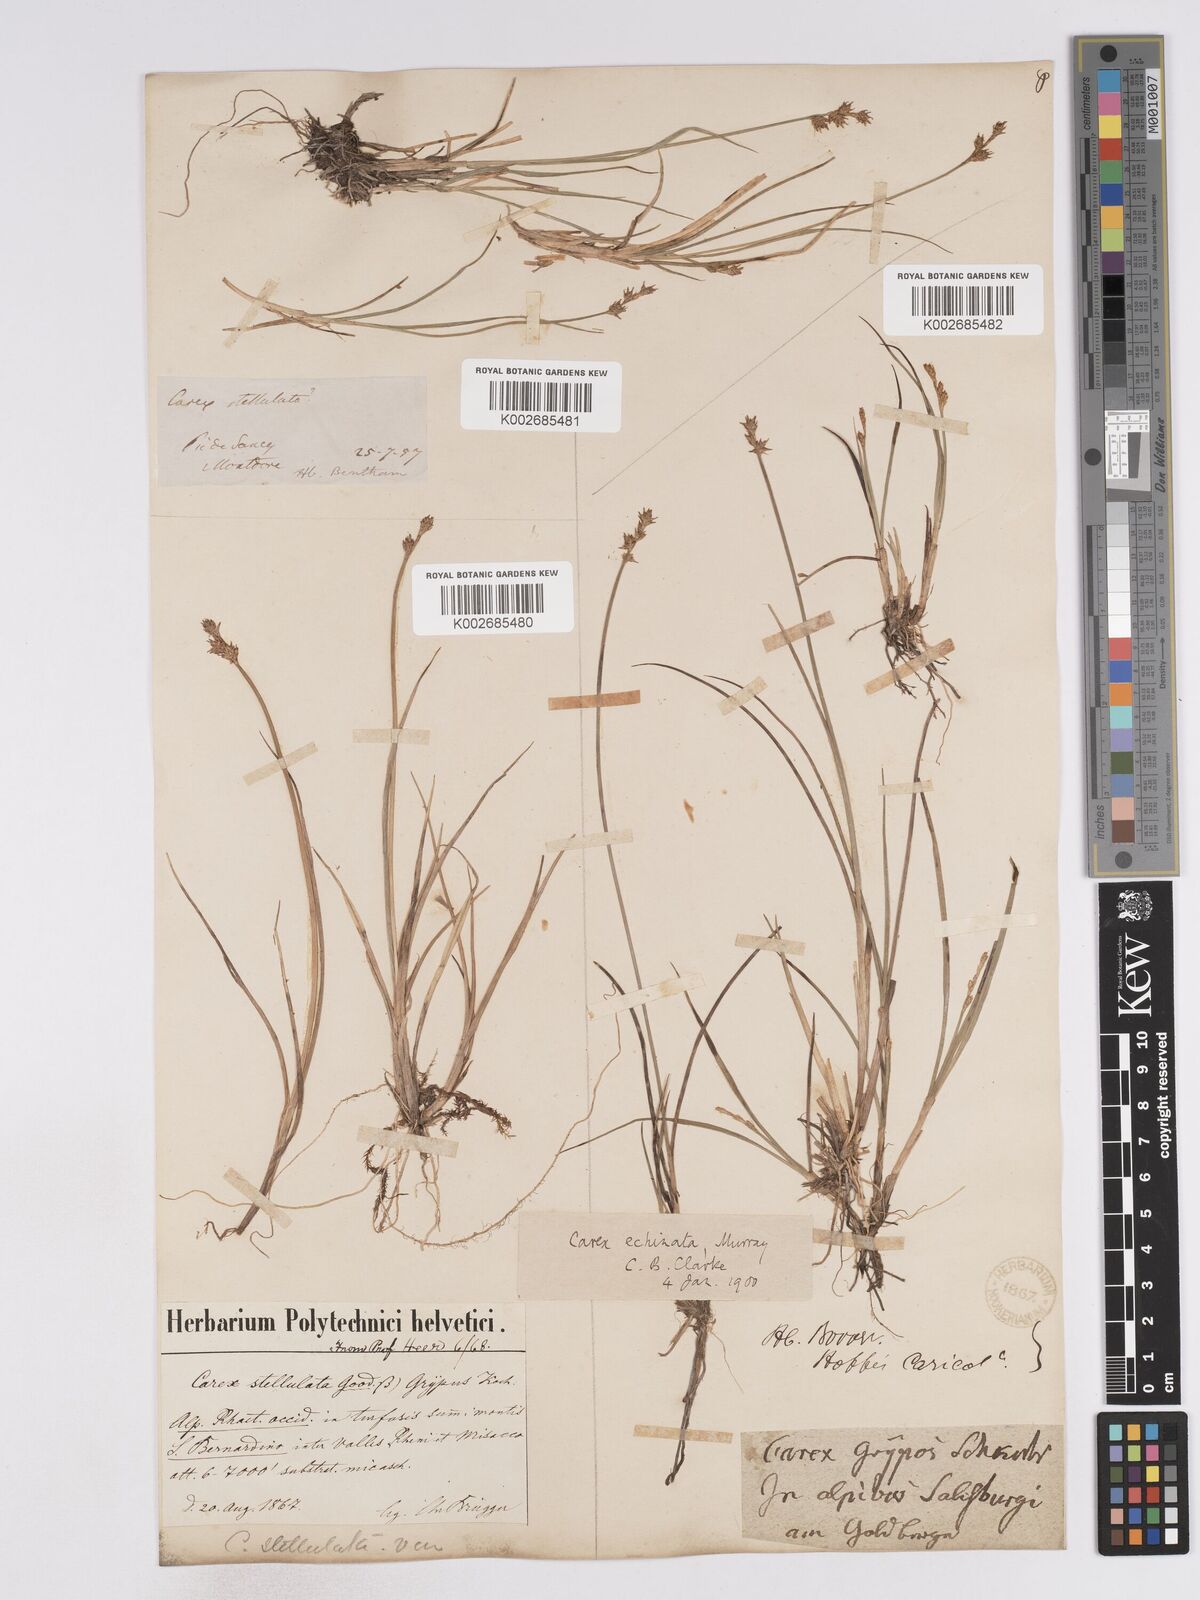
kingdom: Plantae
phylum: Tracheophyta
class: Liliopsida
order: Poales
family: Cyperaceae
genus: Carex
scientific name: Carex echinata
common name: Star sedge
